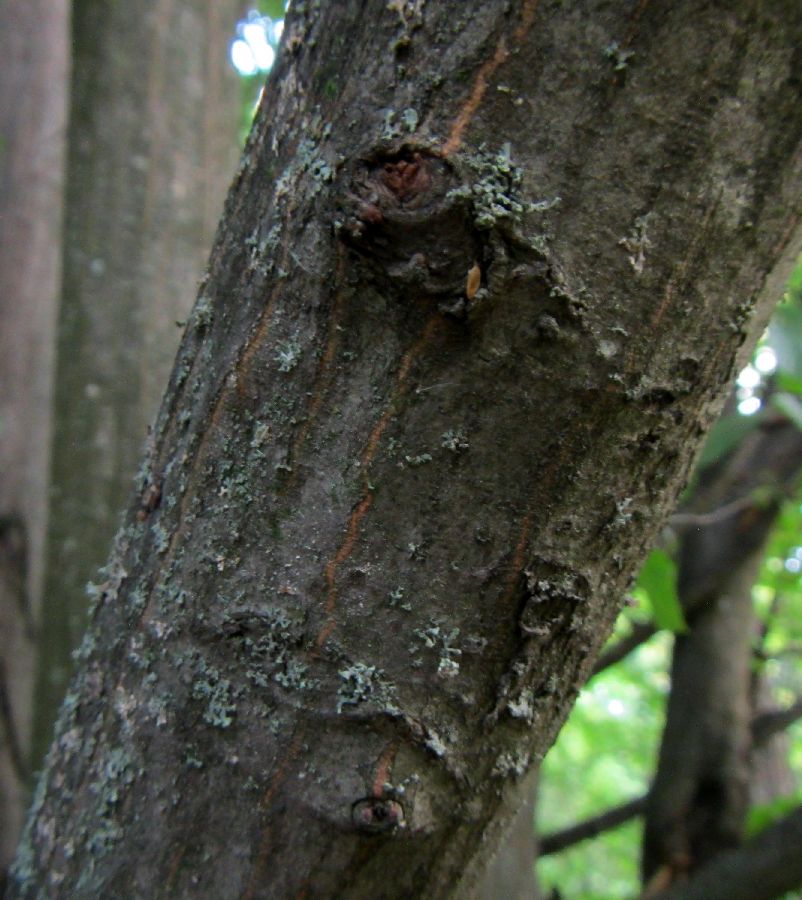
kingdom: Plantae
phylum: Tracheophyta
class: Magnoliopsida
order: Fagales
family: Betulaceae
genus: Carpinus
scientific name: Carpinus betulus
